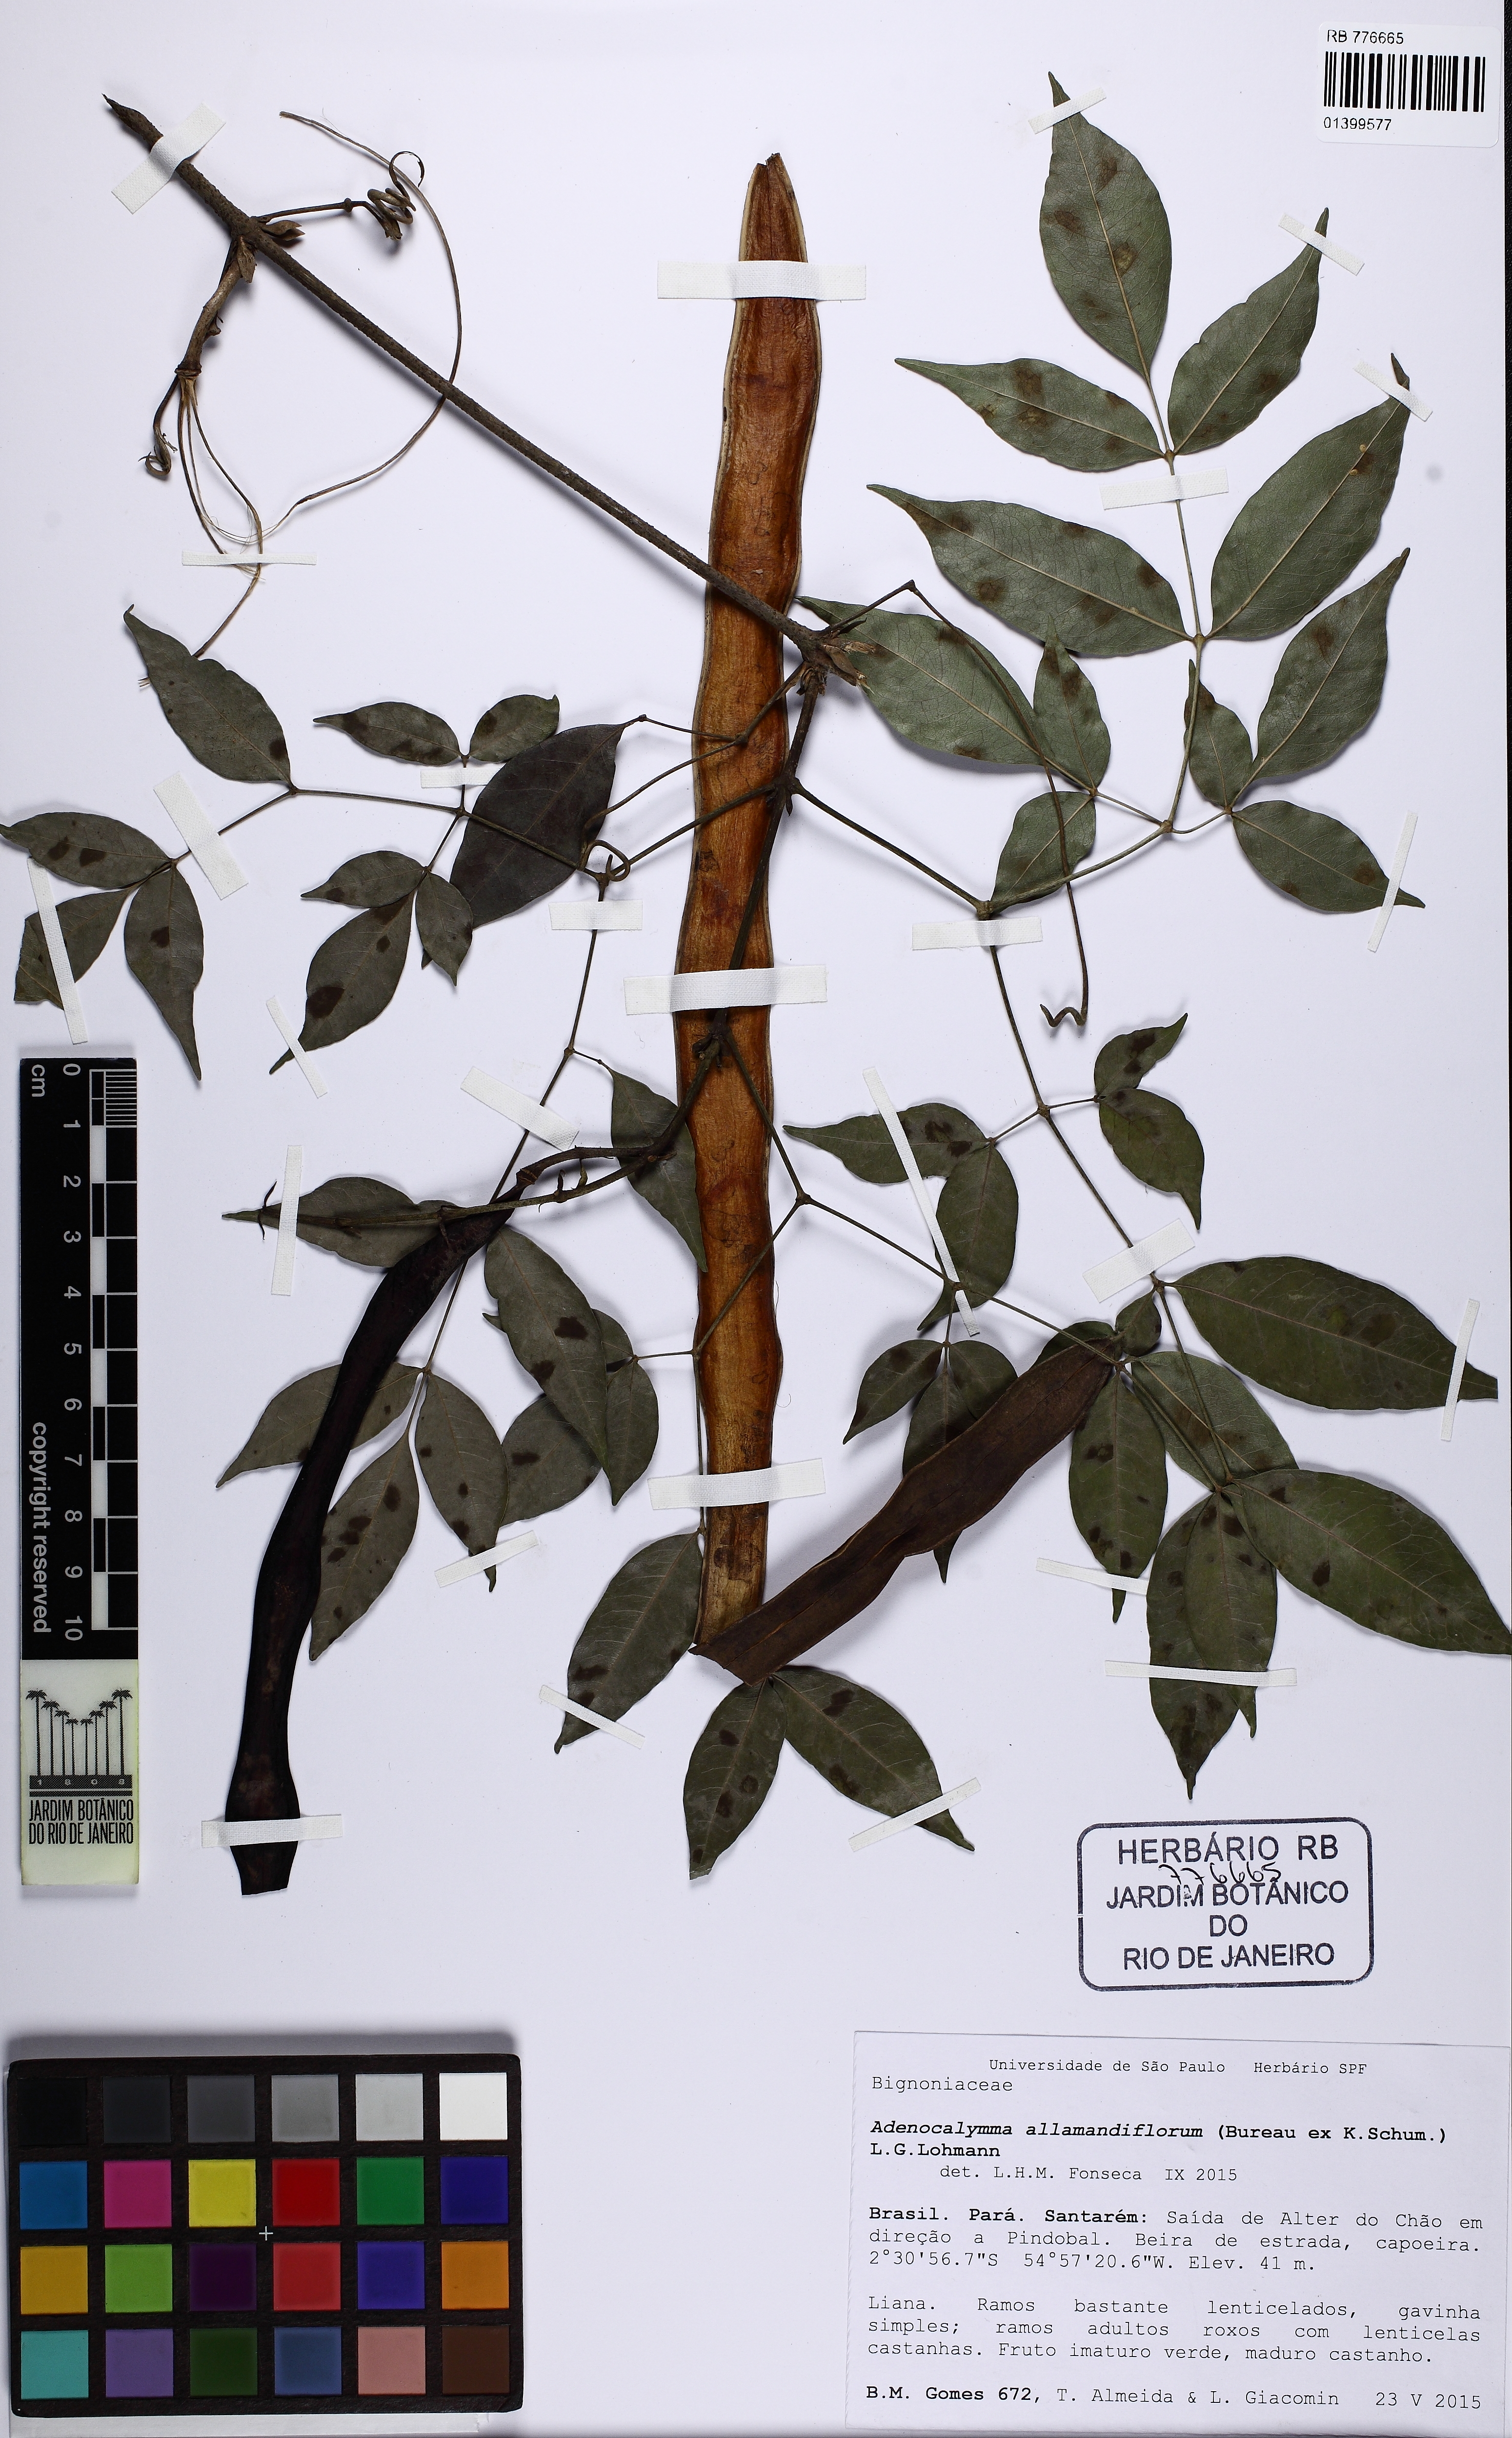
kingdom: Plantae
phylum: Tracheophyta
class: Magnoliopsida
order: Lamiales
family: Bignoniaceae
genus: Adenocalymma
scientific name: Adenocalymma allamandiflorum
